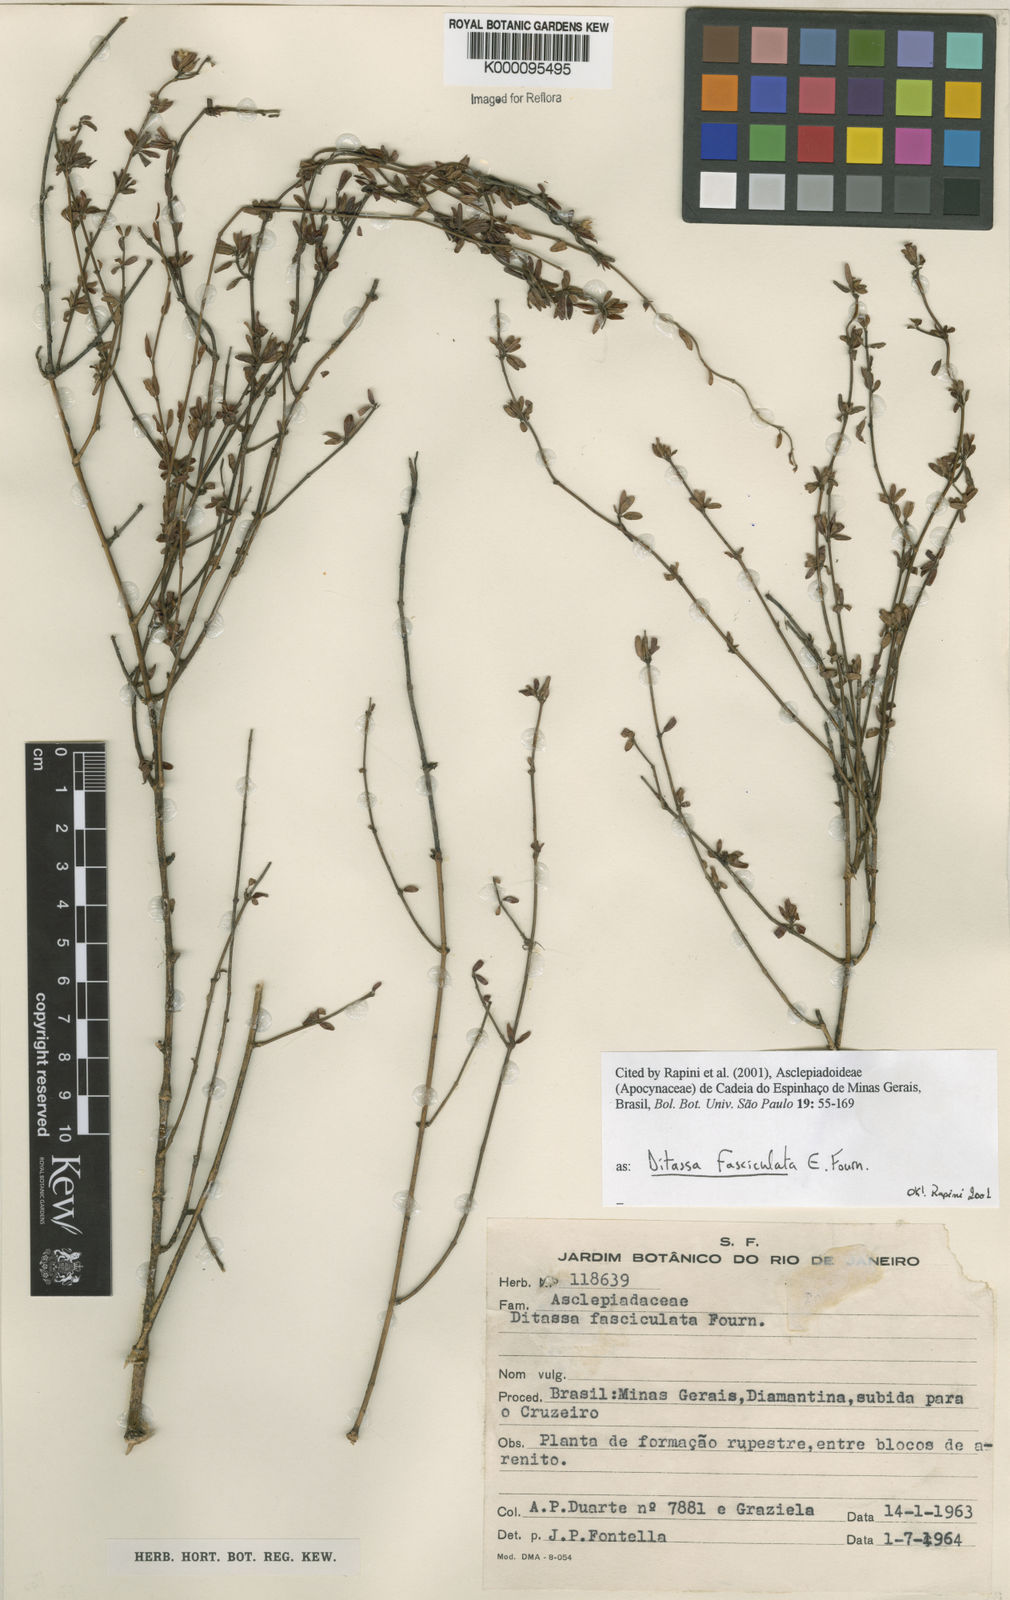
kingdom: Plantae
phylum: Tracheophyta
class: Magnoliopsida
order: Gentianales
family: Apocynaceae
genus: Ditassa
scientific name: Ditassa fasciculata
